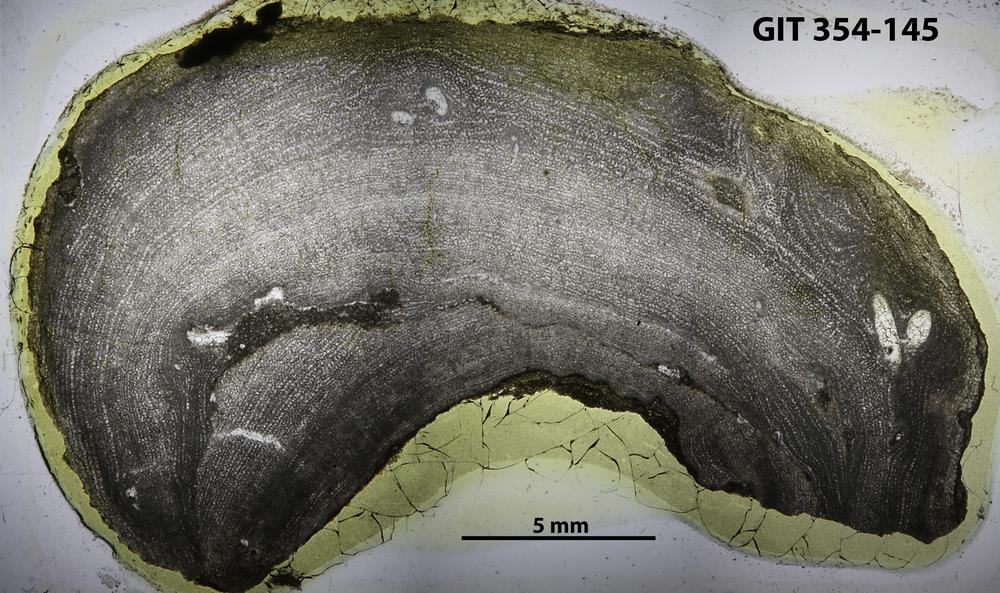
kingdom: Animalia
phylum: Porifera
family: Ecclimadictyidae
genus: Ecclimadictyon
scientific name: Ecclimadictyon Clathrodictyon microvesiculosum
